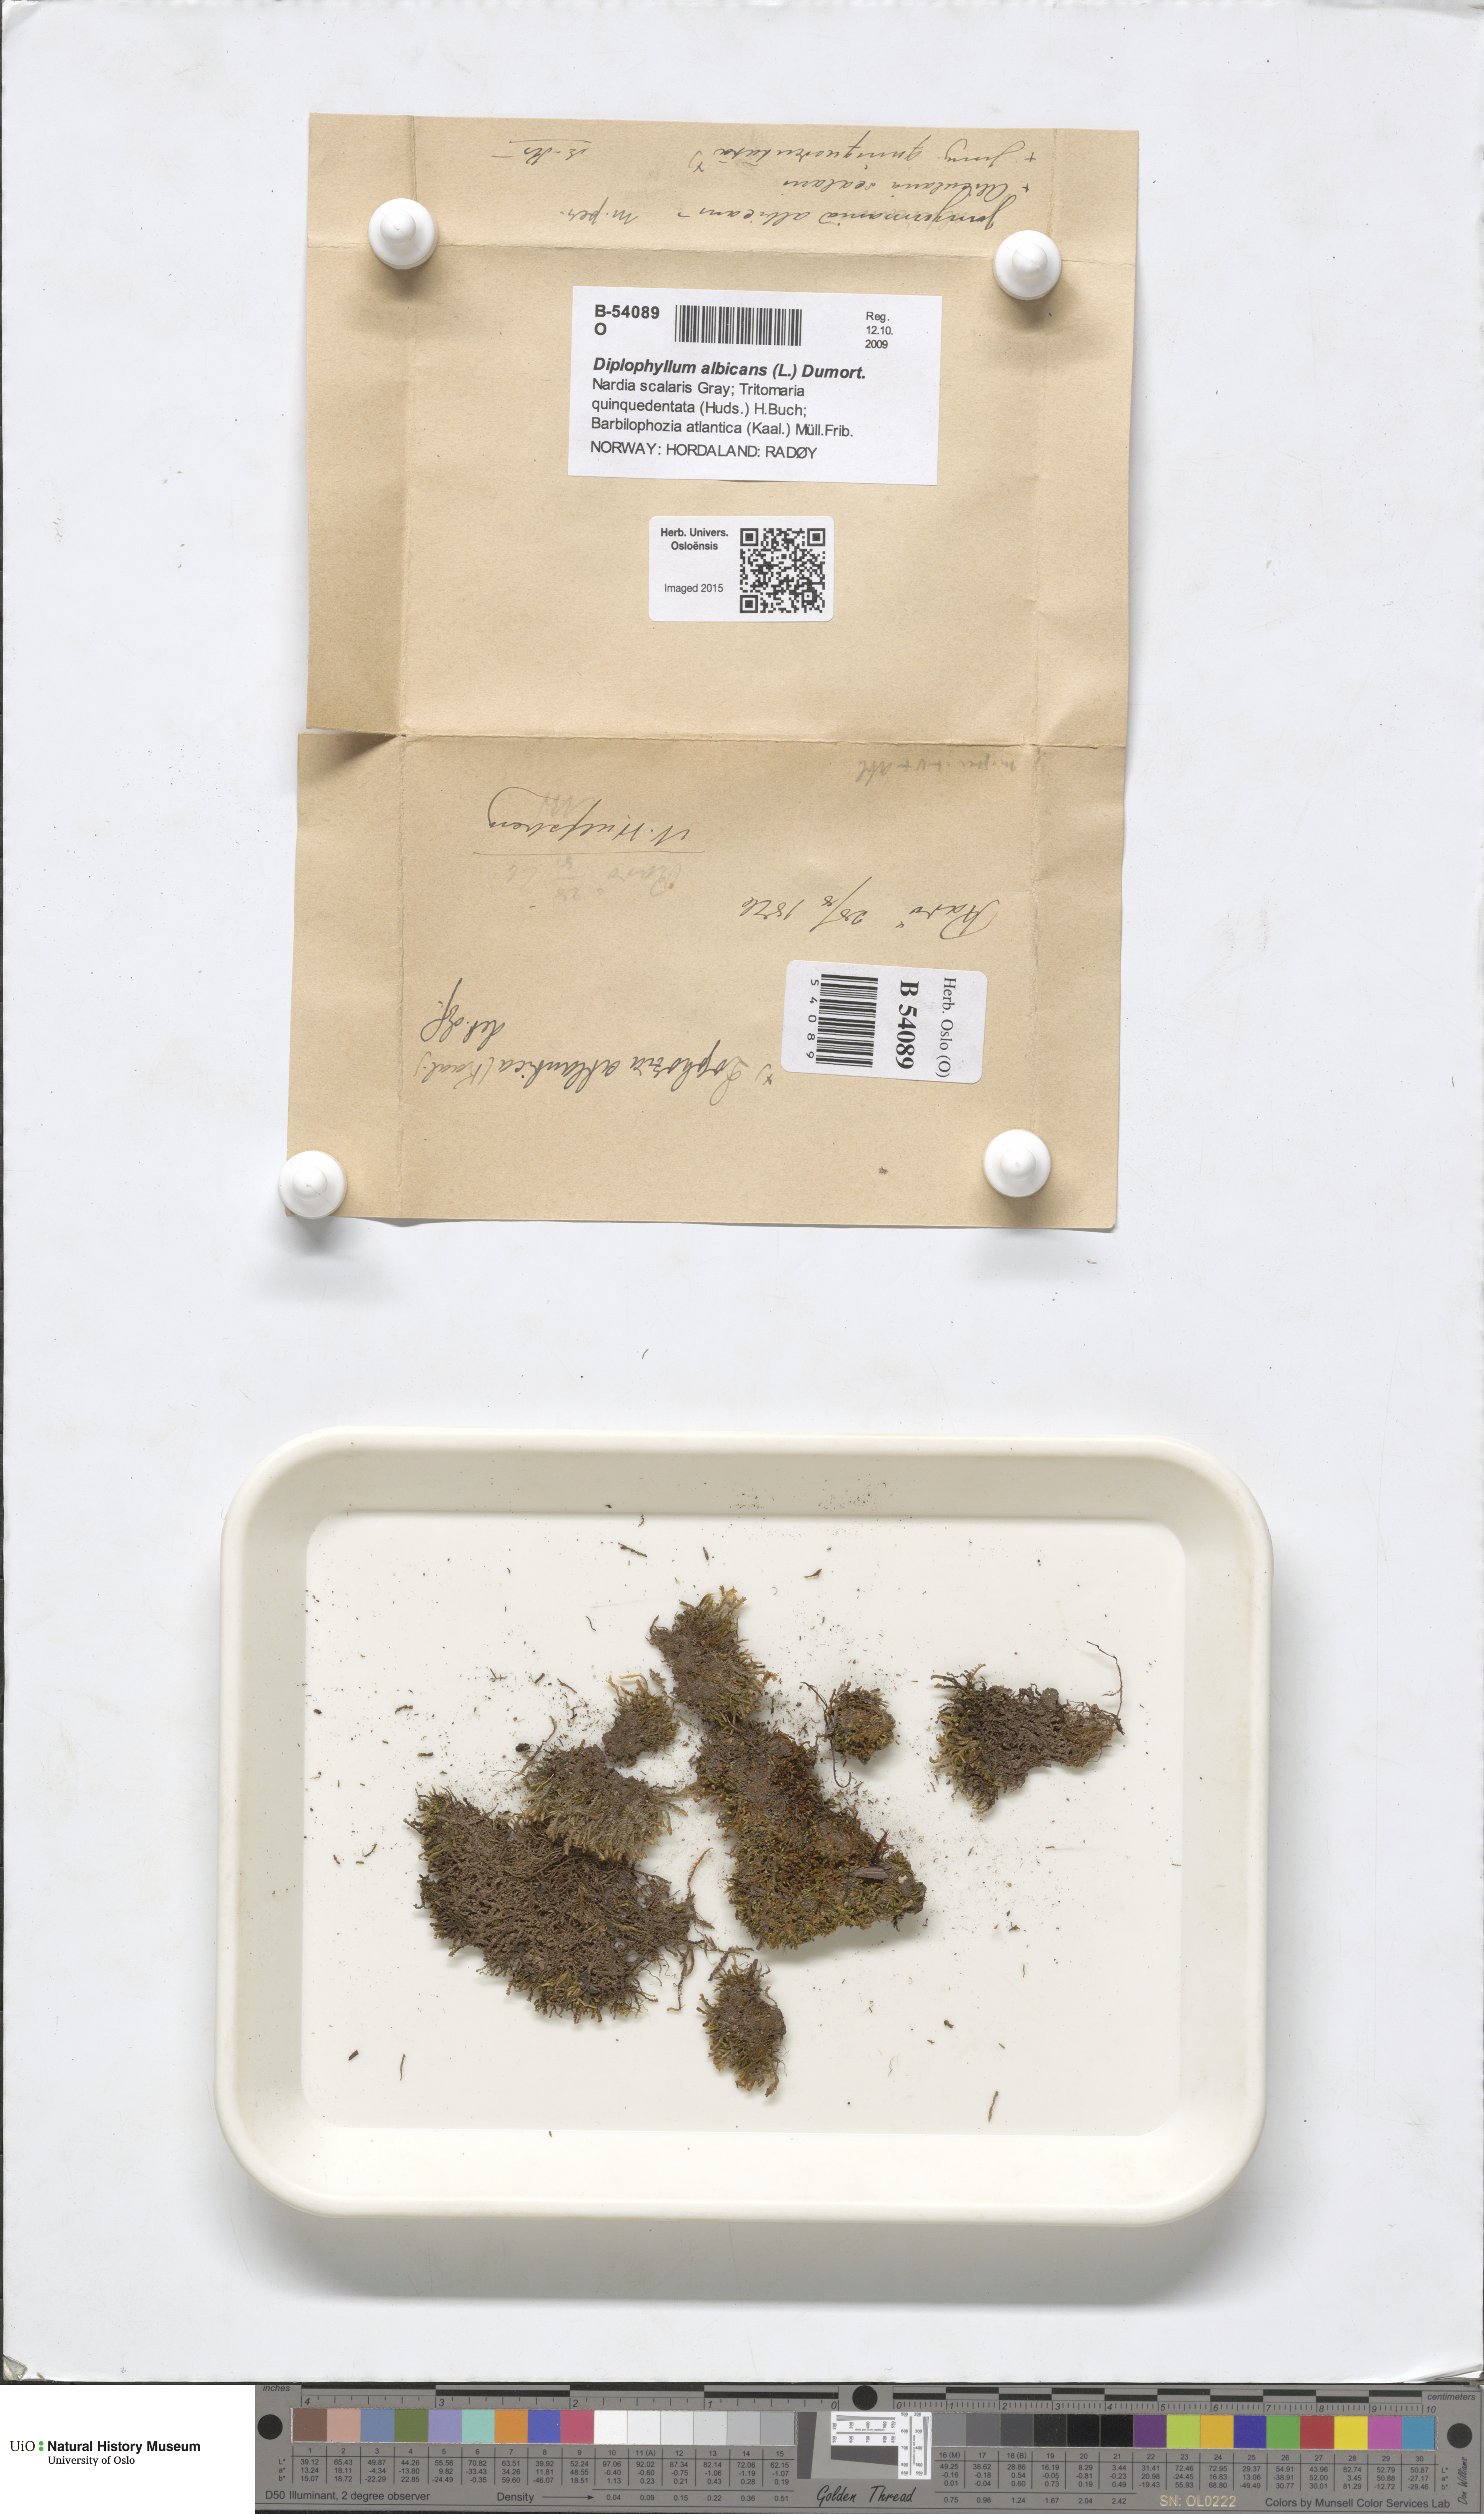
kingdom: Plantae
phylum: Marchantiophyta
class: Jungermanniopsida
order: Jungermanniales
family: Scapaniaceae
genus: Diplophyllum
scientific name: Diplophyllum albicans
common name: White earwort
